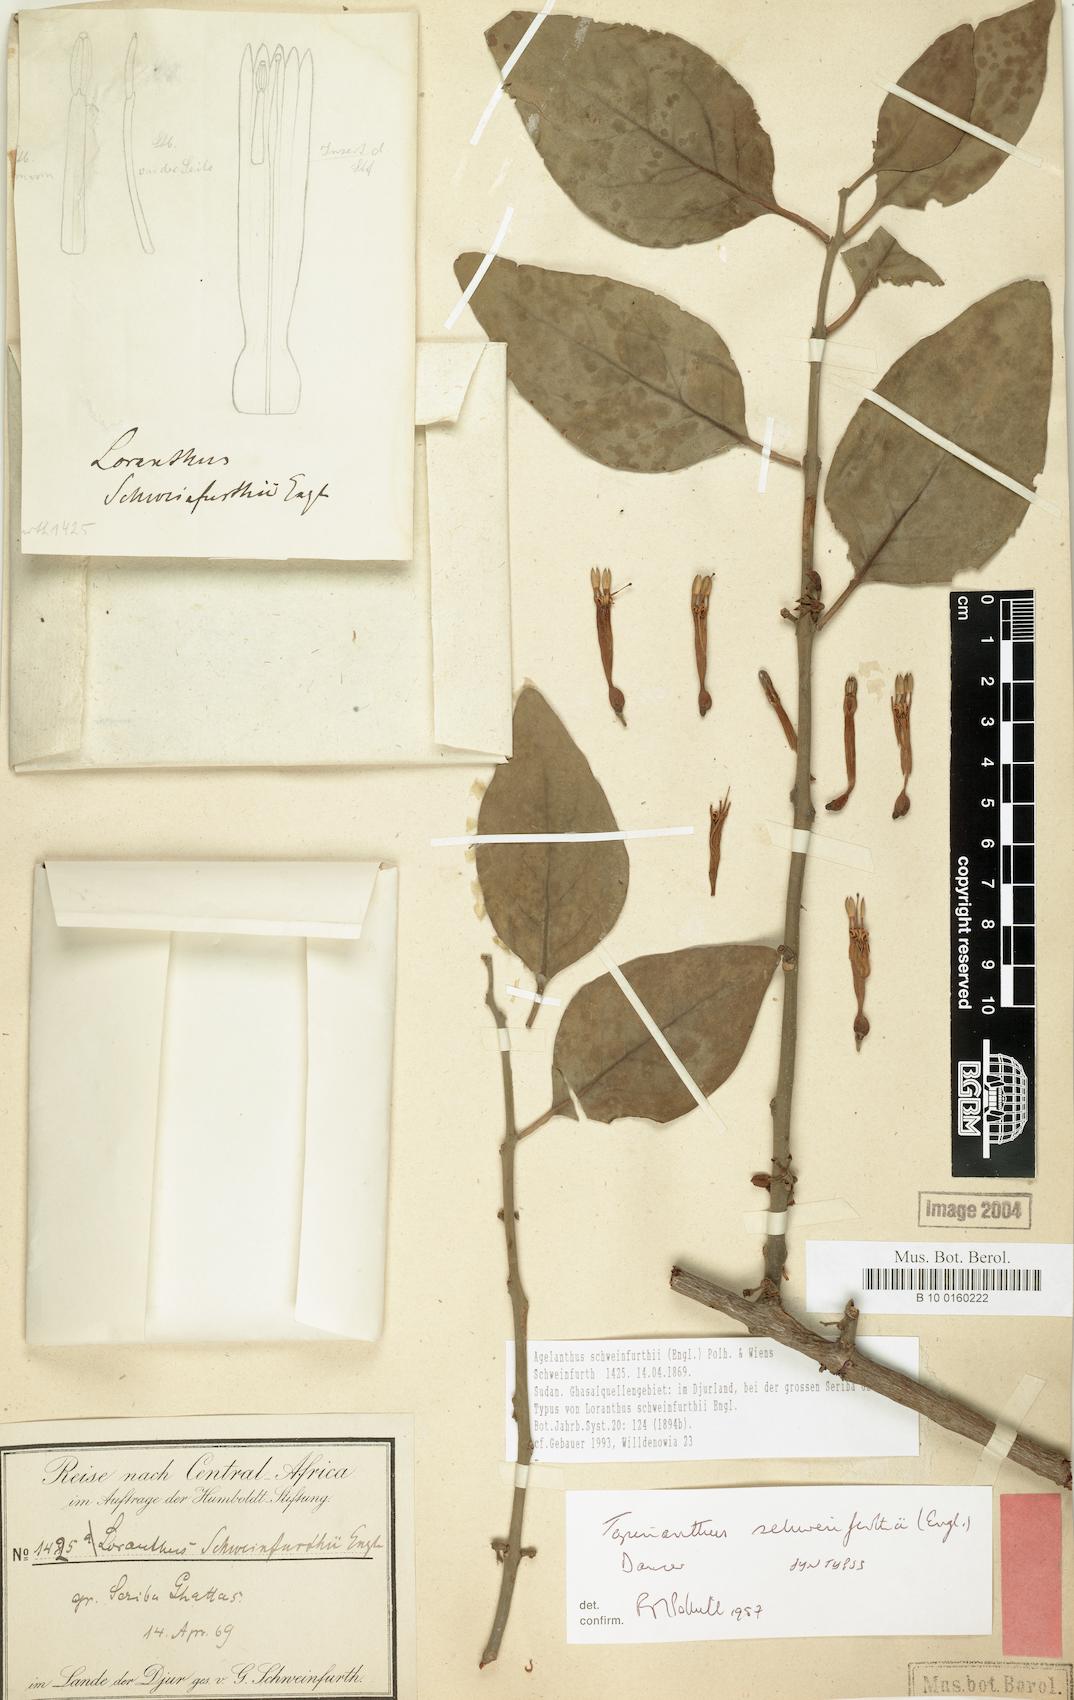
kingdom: Plantae
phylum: Tracheophyta
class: Magnoliopsida
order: Santalales
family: Loranthaceae
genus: Agelanthus
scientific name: Agelanthus schweinfurthii
